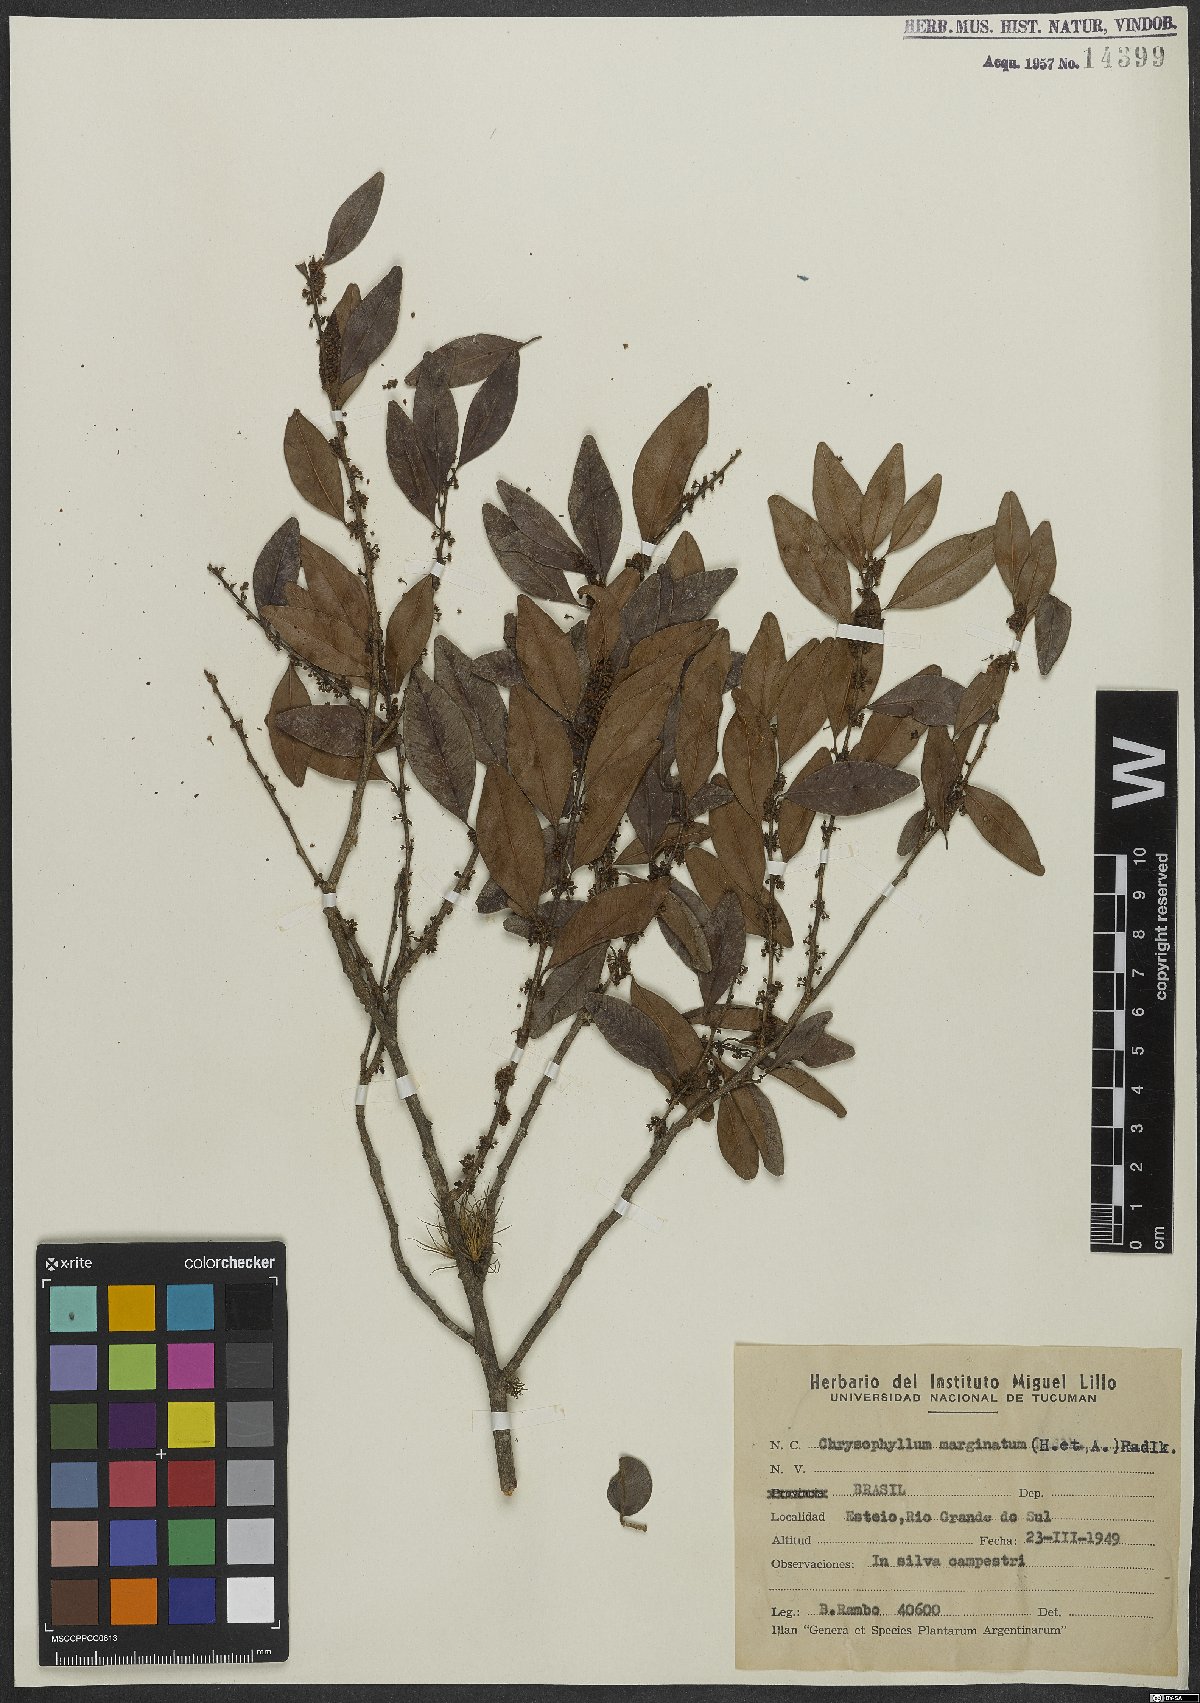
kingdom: Plantae
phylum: Tracheophyta
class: Magnoliopsida
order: Ericales
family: Sapotaceae
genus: Chrysophyllum
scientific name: Chrysophyllum marginatum
